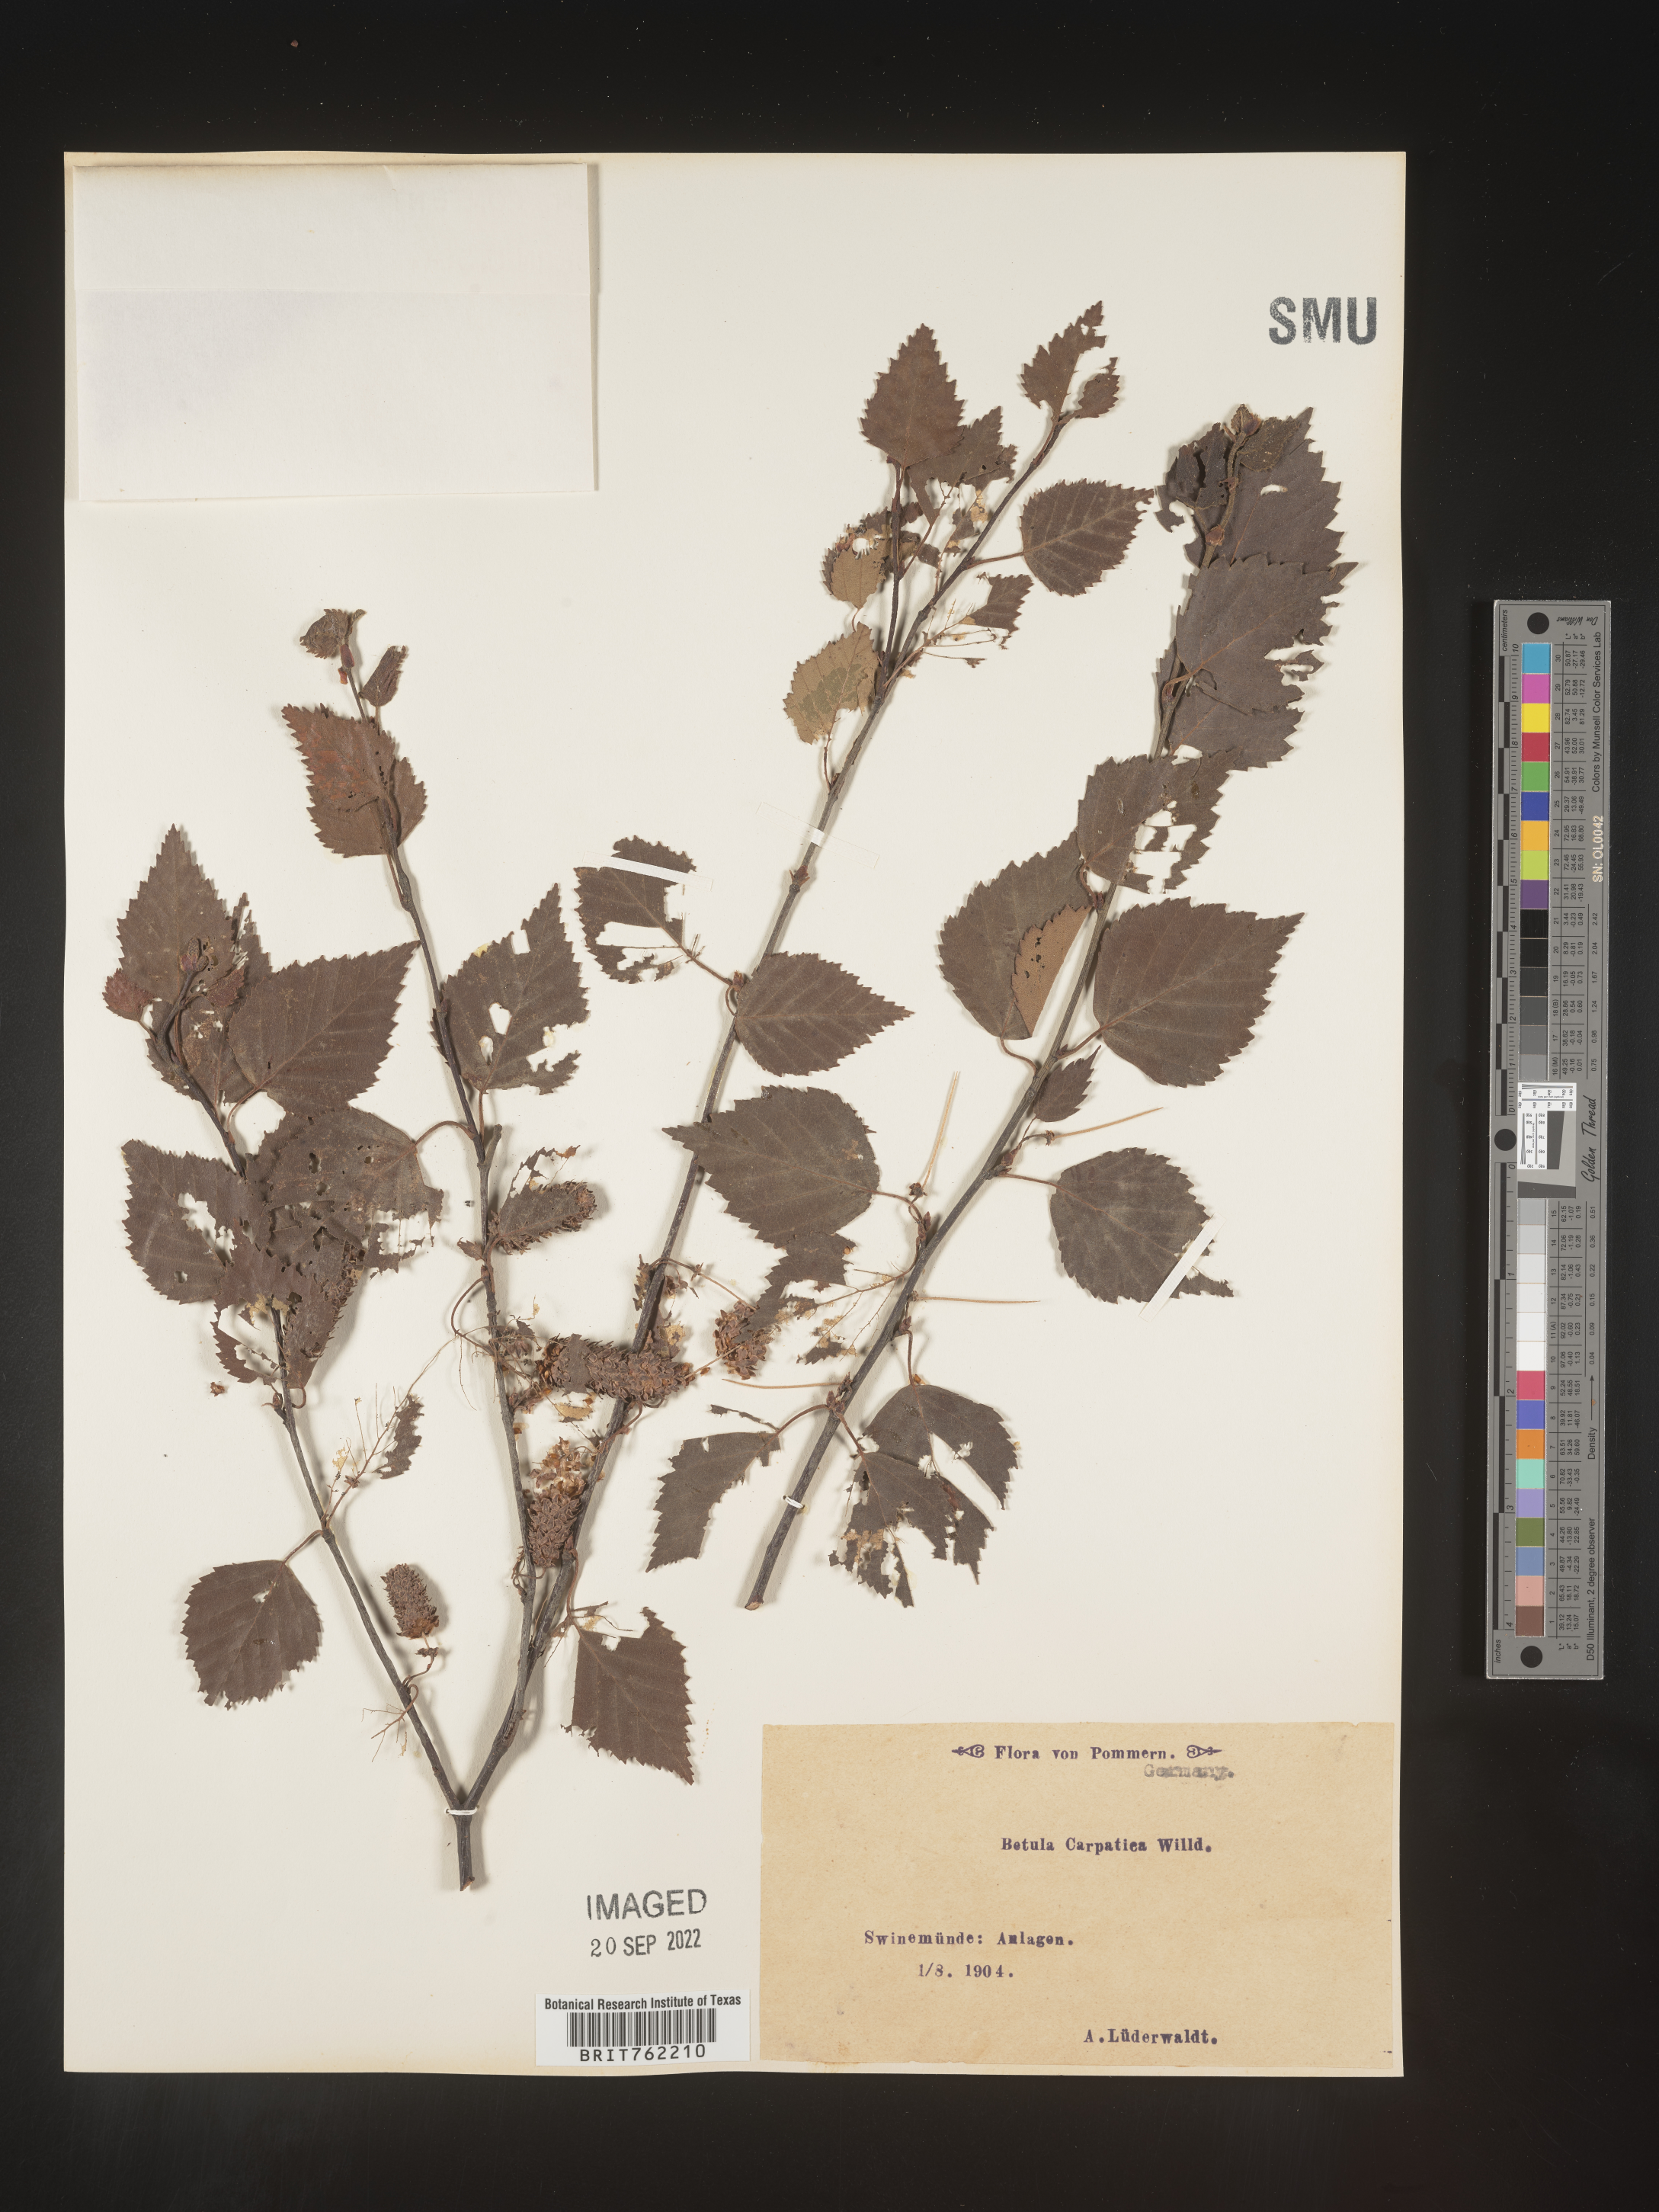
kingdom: Plantae
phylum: Tracheophyta
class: Magnoliopsida
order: Fagales
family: Betulaceae
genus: Betula
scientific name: Betula
